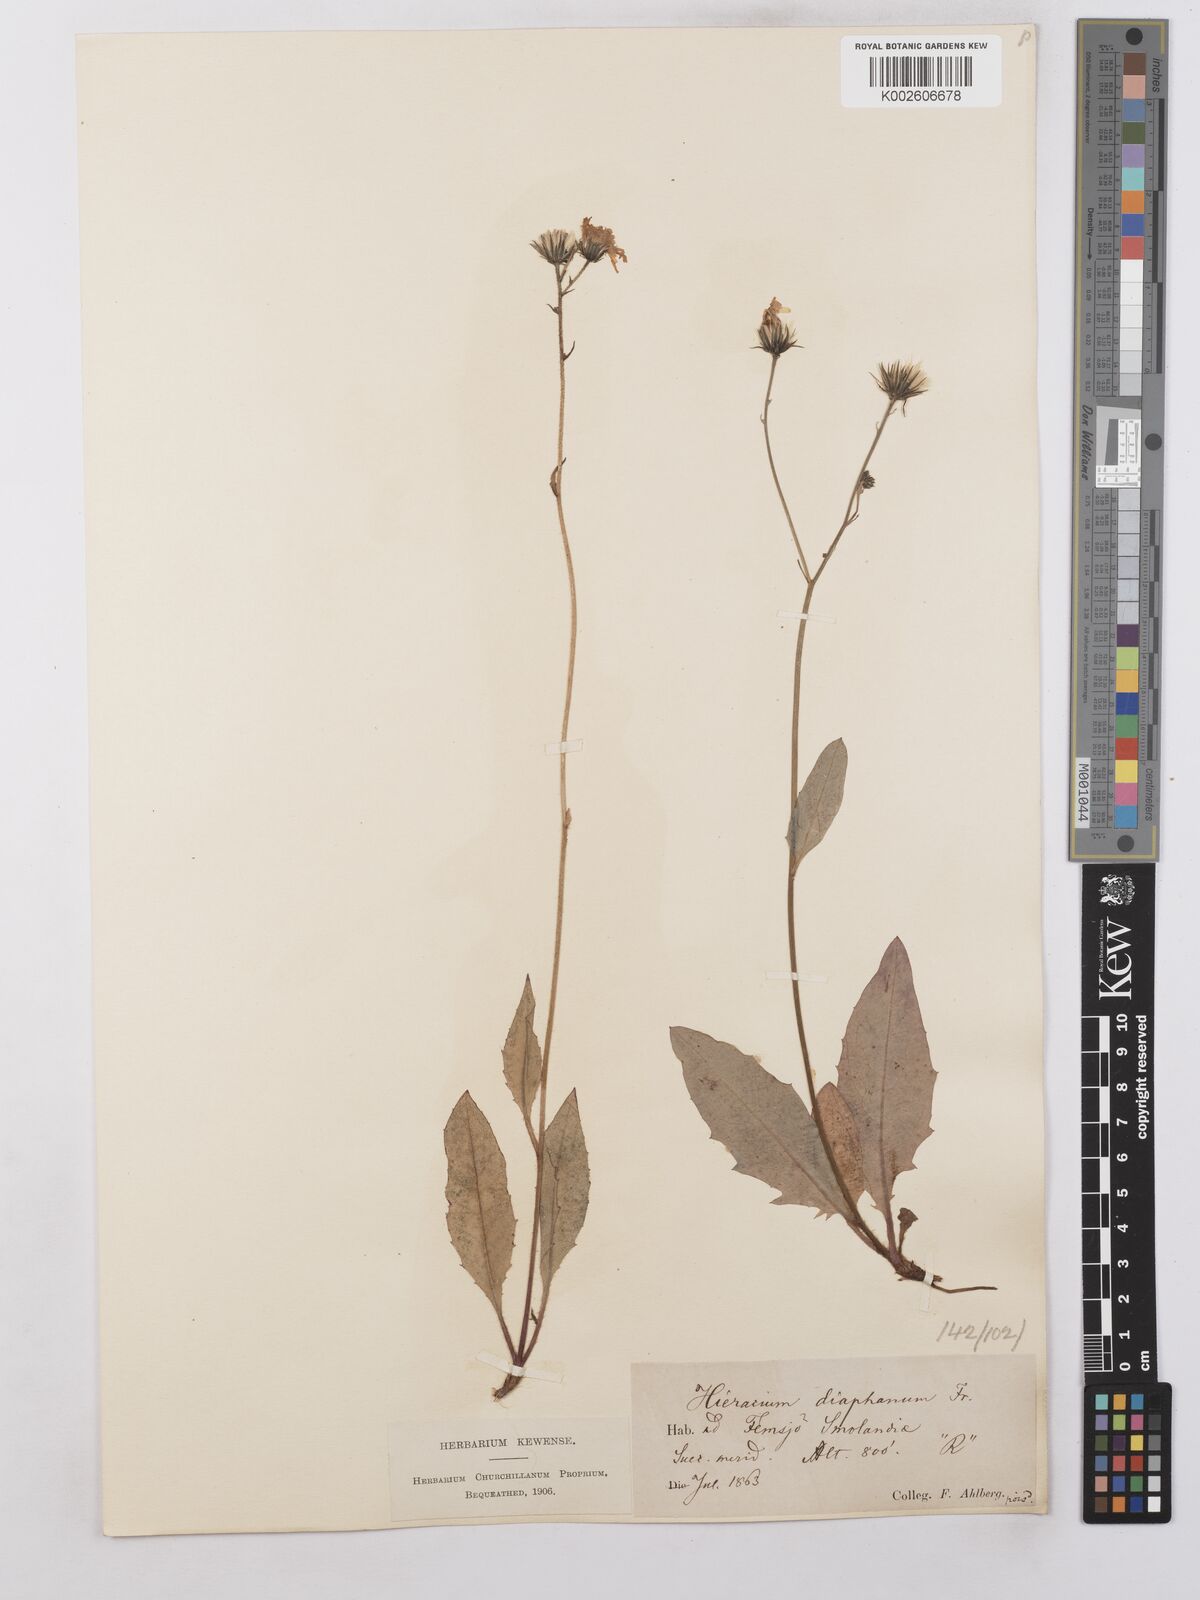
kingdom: Plantae
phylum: Tracheophyta
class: Magnoliopsida
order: Asterales
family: Asteraceae
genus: Hieracium
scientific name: Hieracium lachenalii
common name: Common hawkweed
